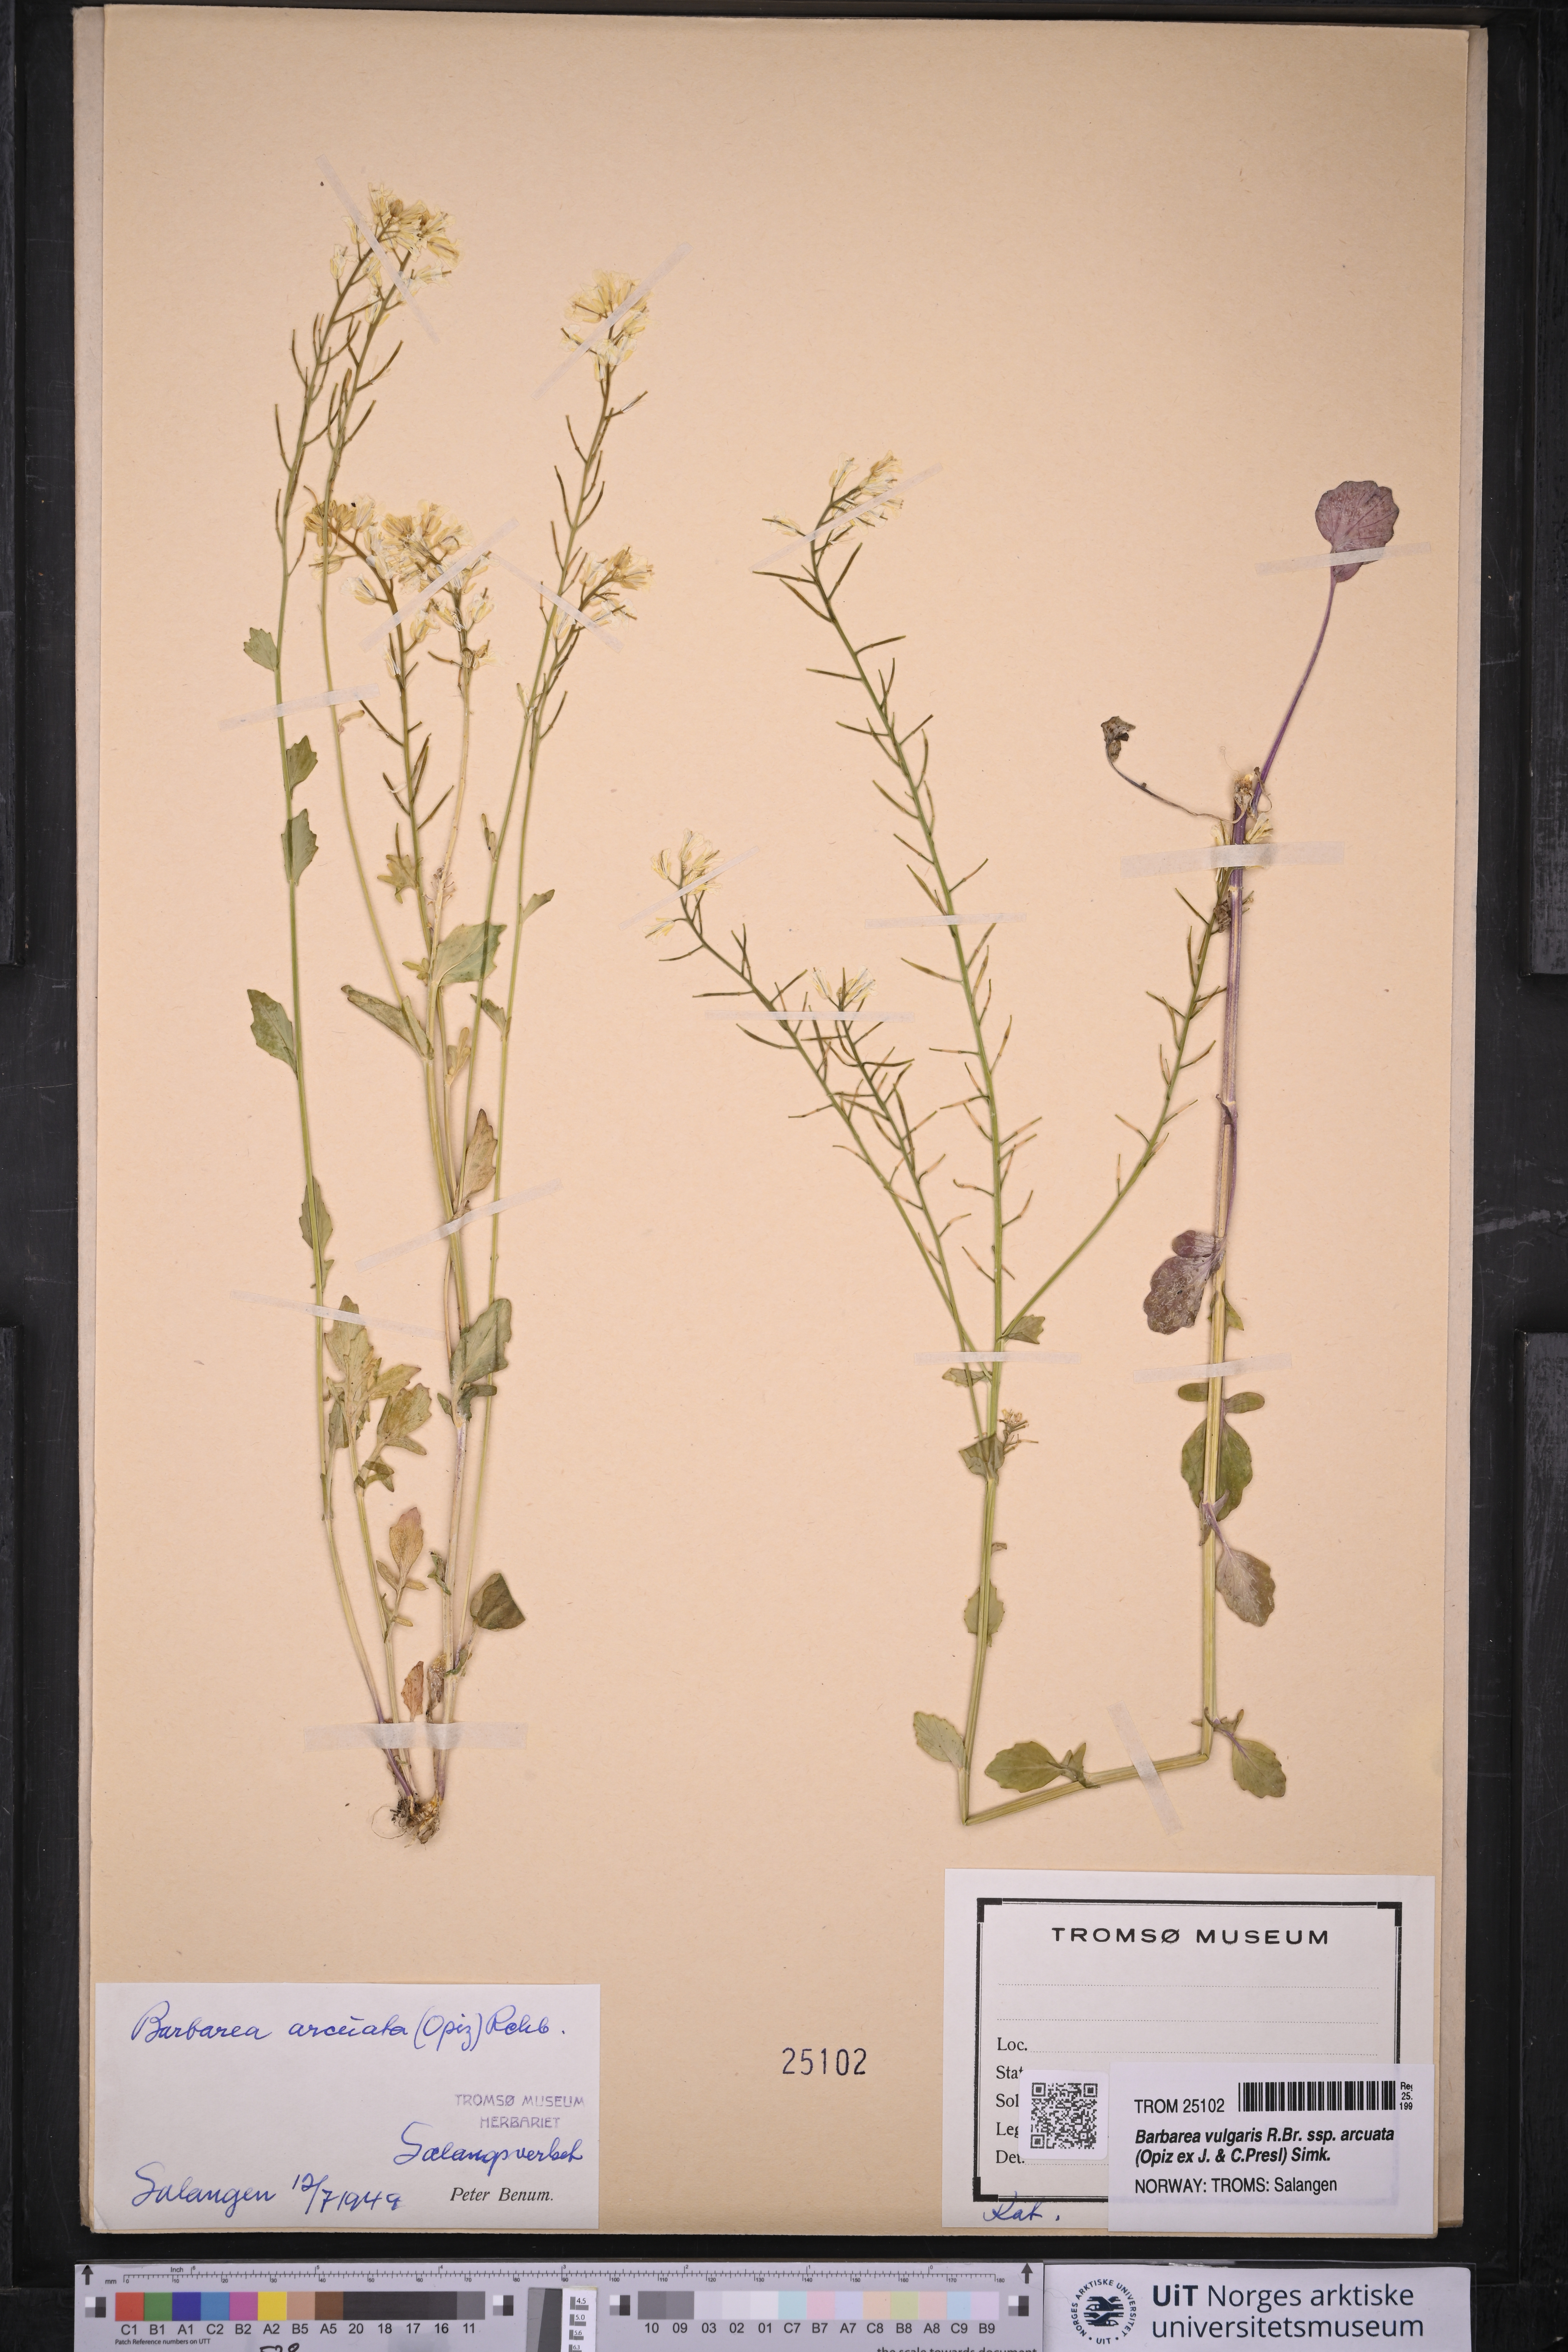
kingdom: Plantae
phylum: Tracheophyta
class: Magnoliopsida
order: Brassicales
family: Brassicaceae
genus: Barbarea
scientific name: Barbarea vulgaris
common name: Cressy-greens
